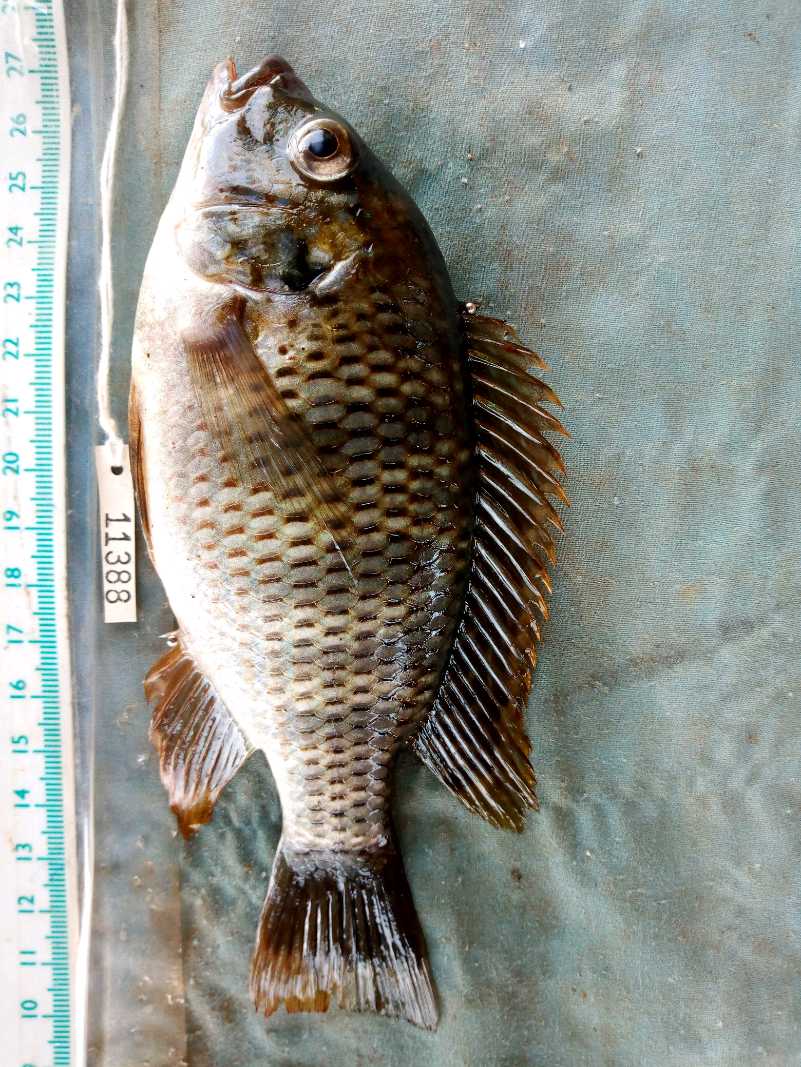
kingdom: Animalia
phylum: Chordata
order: Perciformes
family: Cichlidae
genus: Coptodon
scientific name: Coptodon rendalli
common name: Redbreast tilapia
